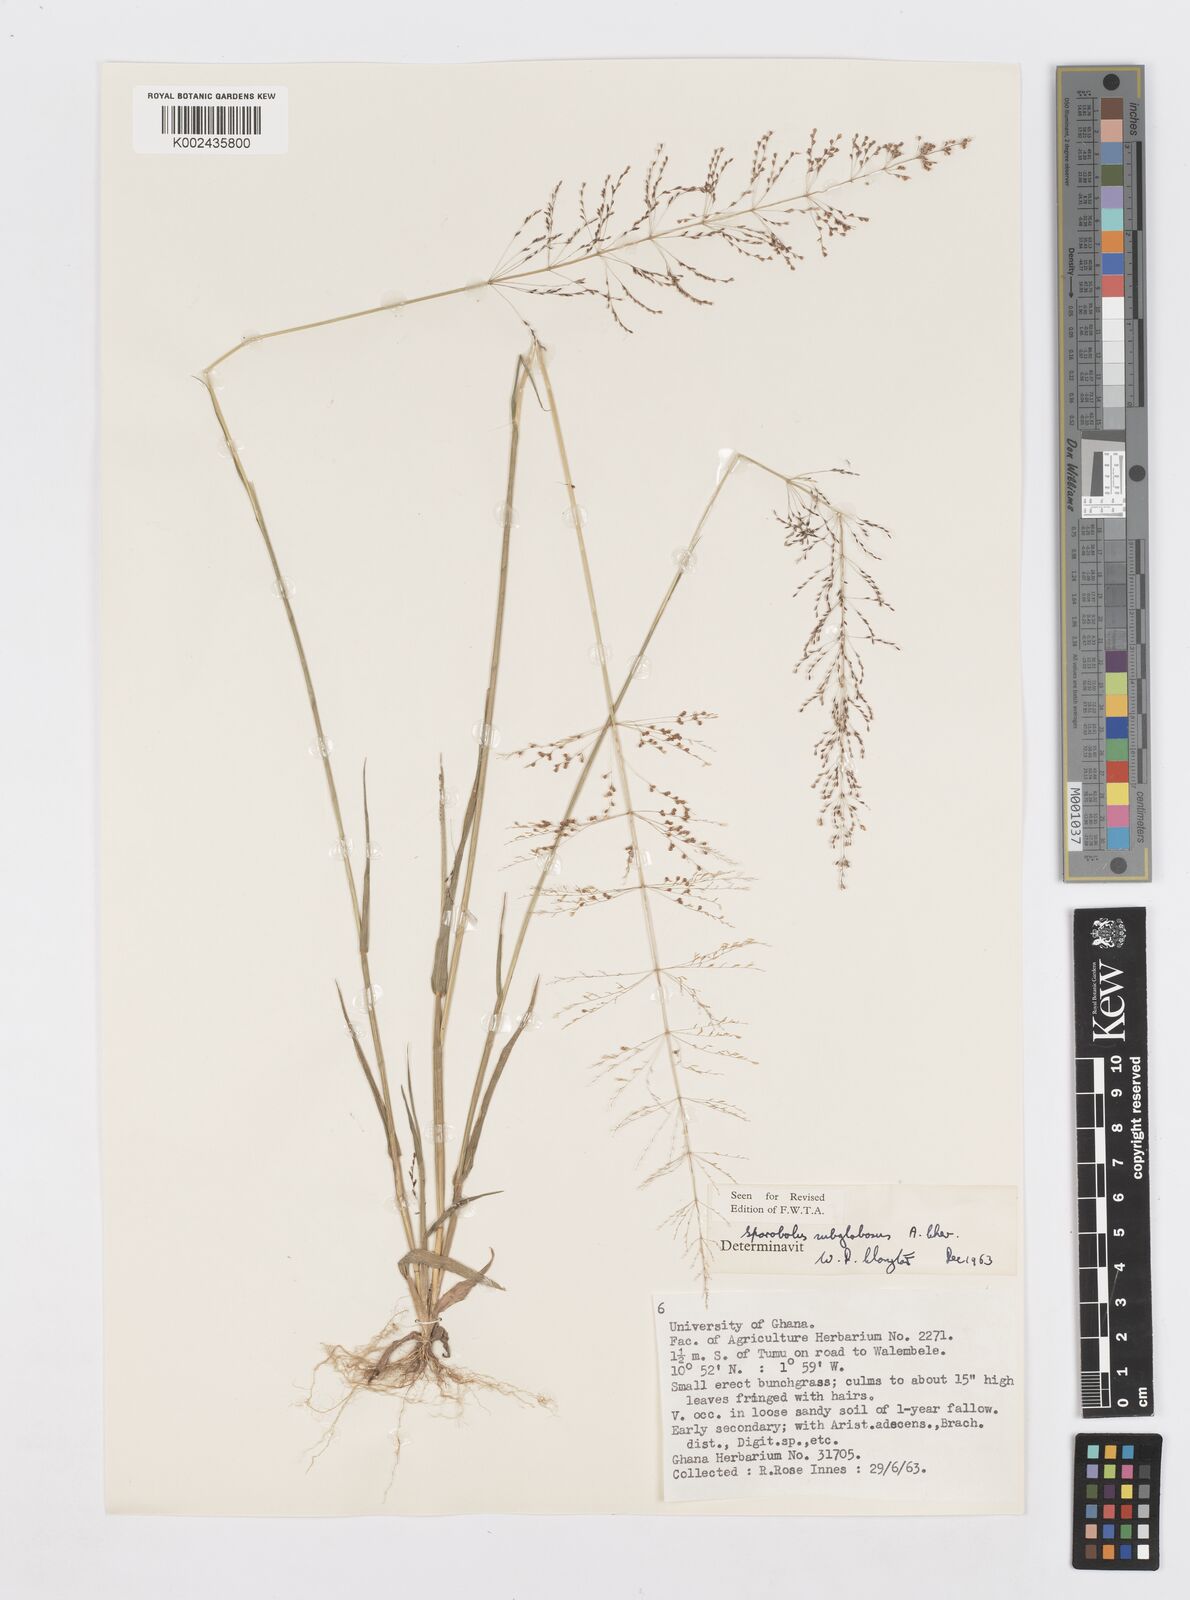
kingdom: Plantae
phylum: Tracheophyta
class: Liliopsida
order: Poales
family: Poaceae
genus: Sporobolus
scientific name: Sporobolus subglobosus
